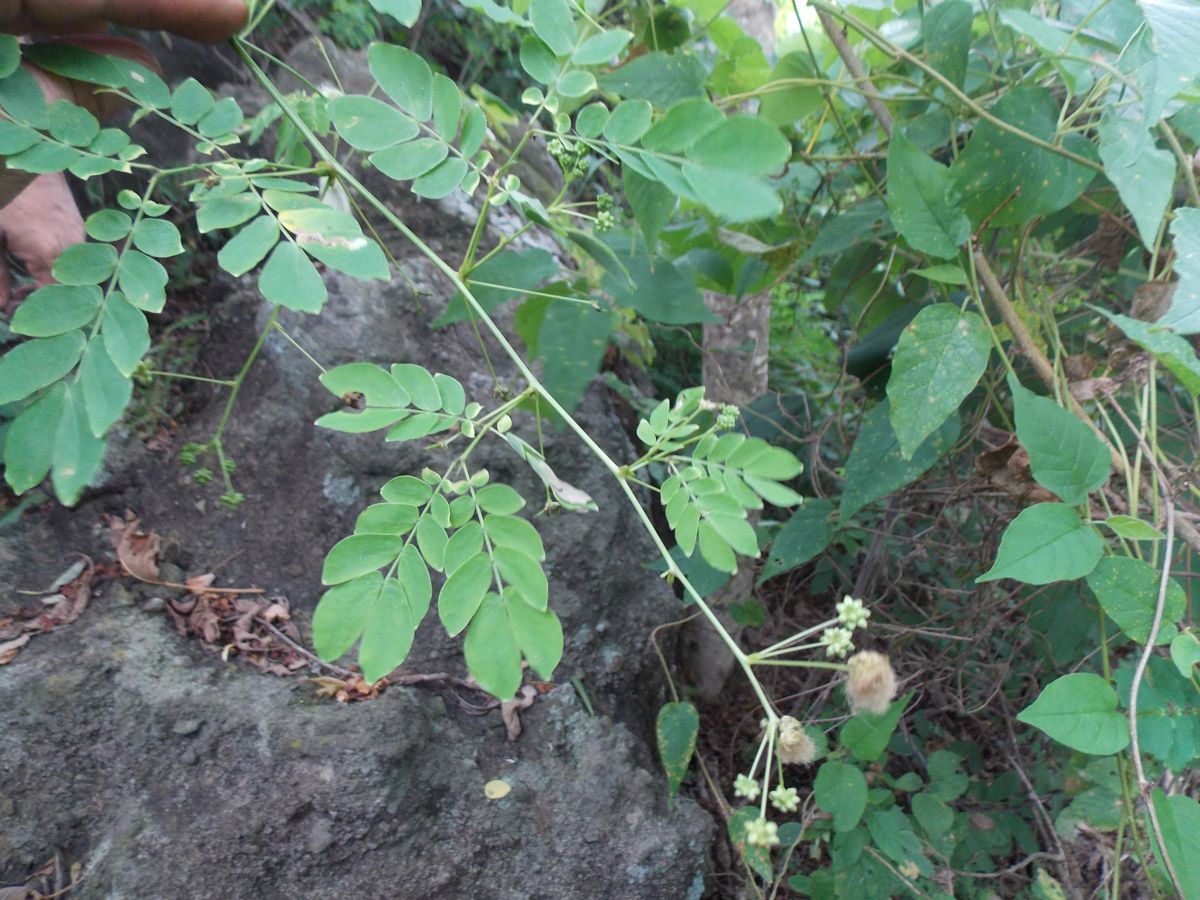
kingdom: Plantae
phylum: Tracheophyta
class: Magnoliopsida
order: Fabales
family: Fabaceae
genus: Zapoteca
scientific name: Zapoteca formosa
